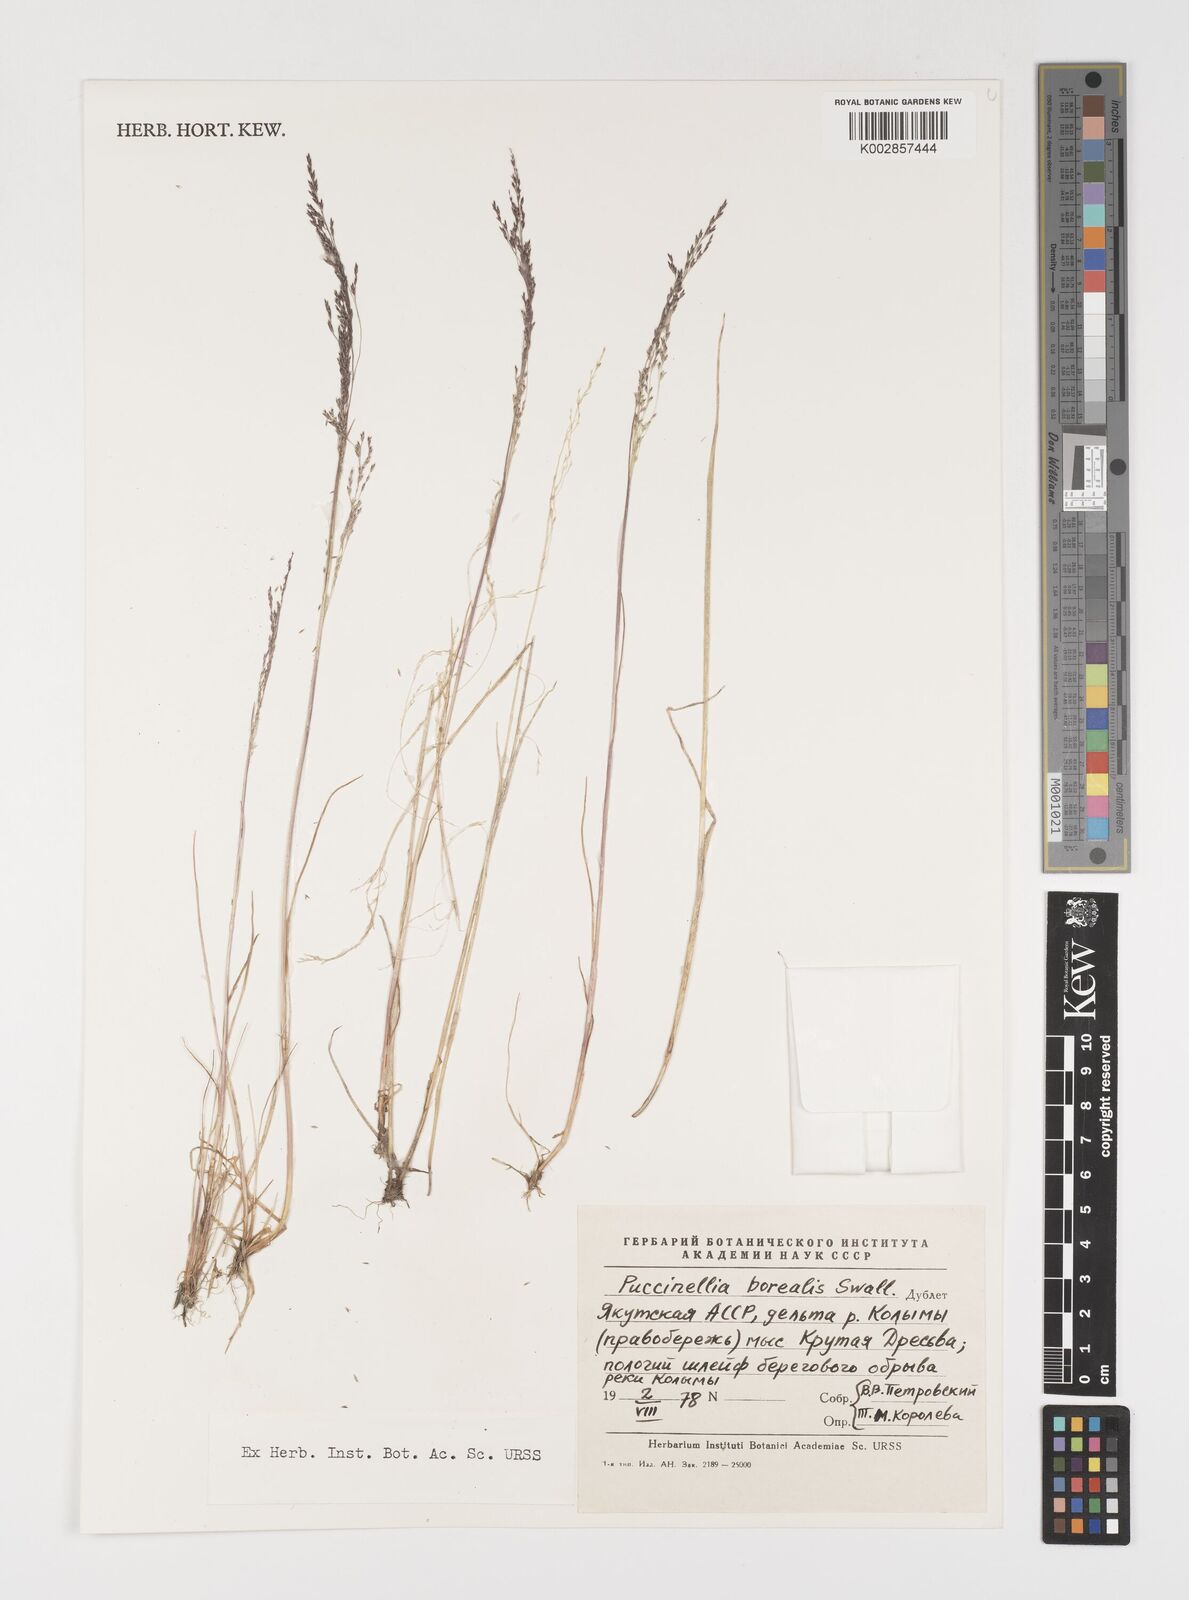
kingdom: Plantae
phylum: Tracheophyta
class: Liliopsida
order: Poales
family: Poaceae
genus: Puccinellia
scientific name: Puccinellia nuttalliana
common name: Nuttall's alkali grass
